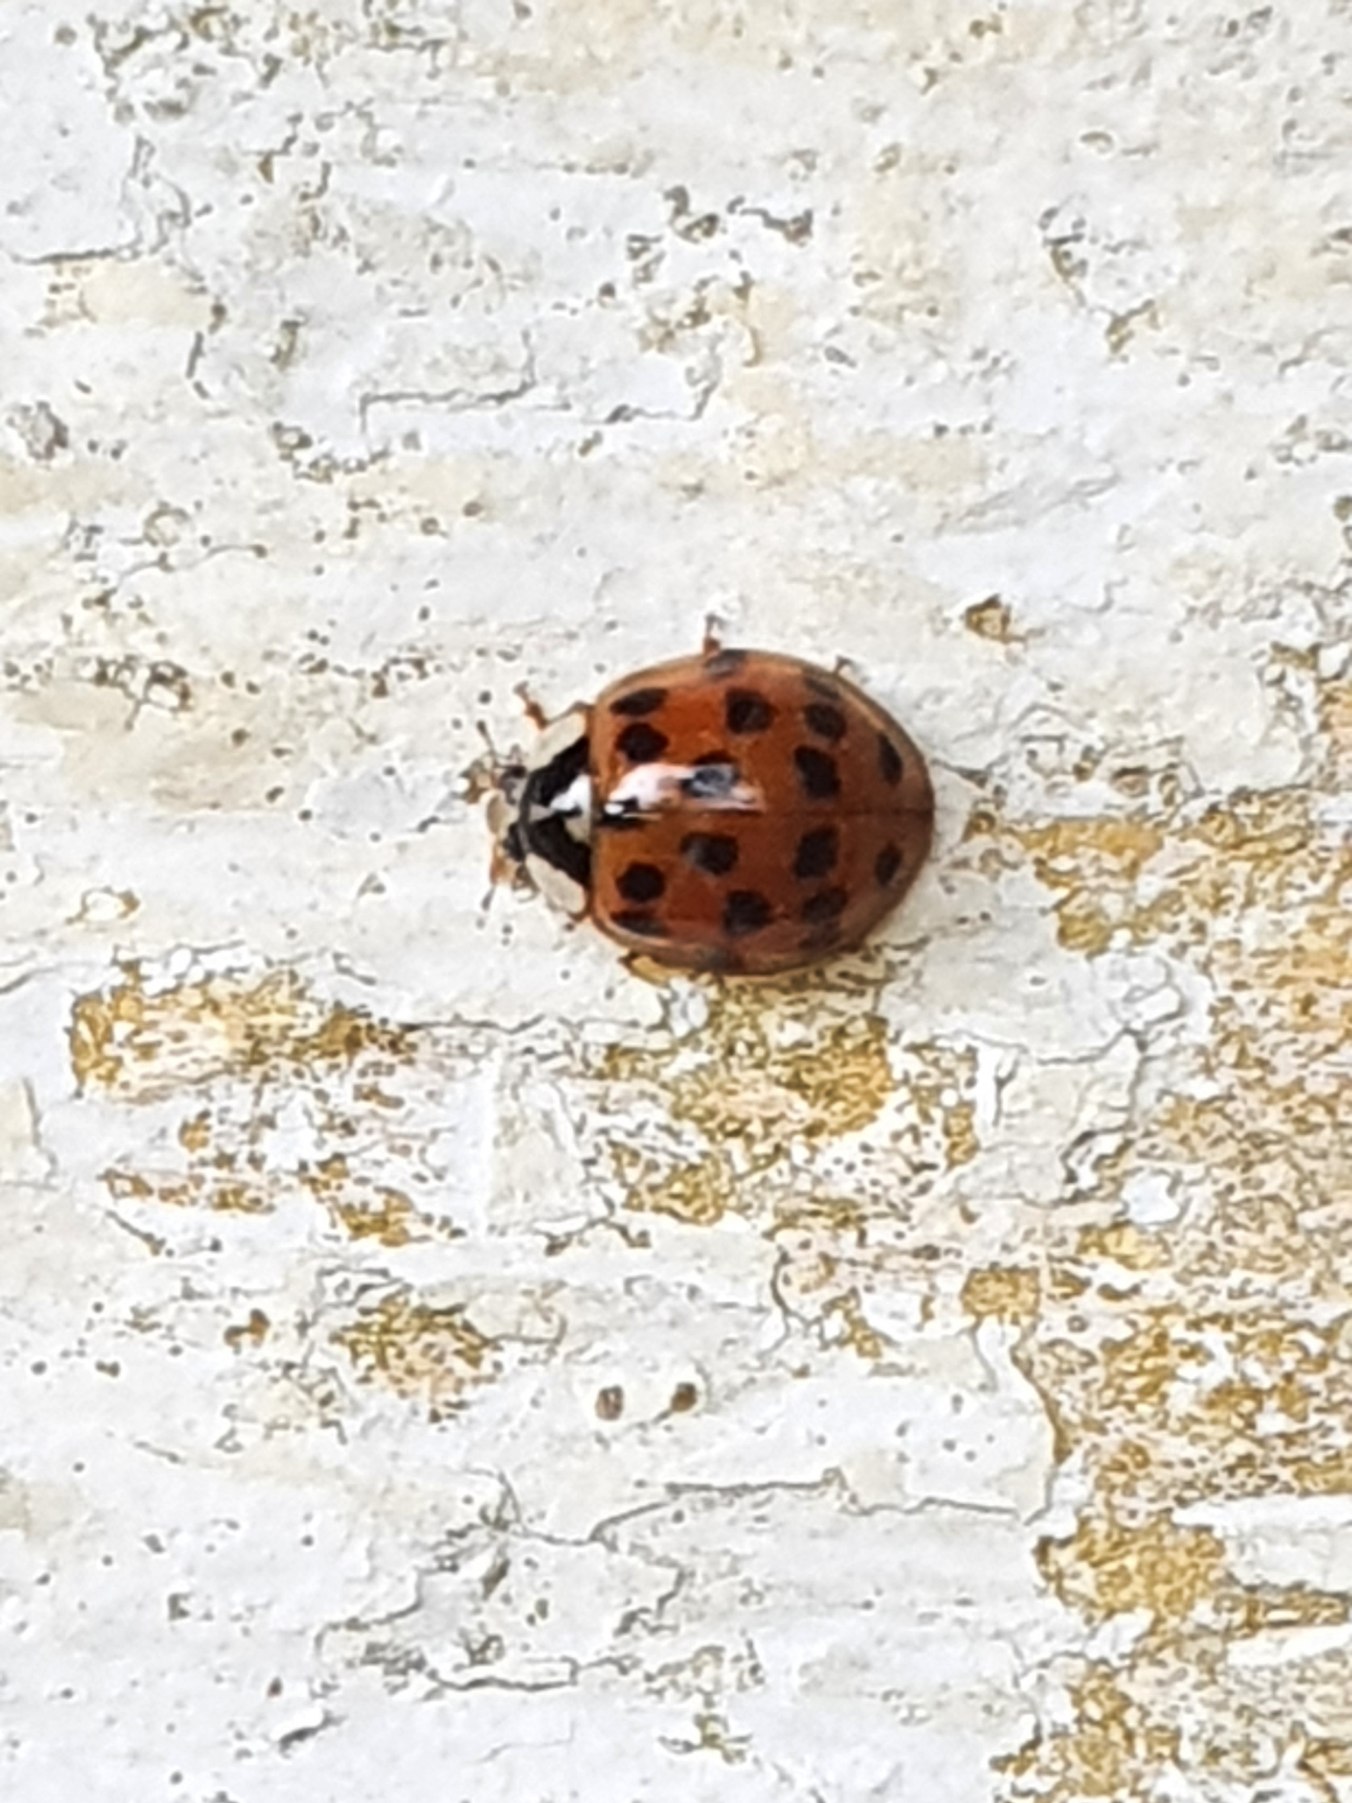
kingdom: Animalia
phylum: Arthropoda
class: Insecta
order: Coleoptera
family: Coccinellidae
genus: Harmonia
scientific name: Harmonia axyridis
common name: Harlekinmariehøne
